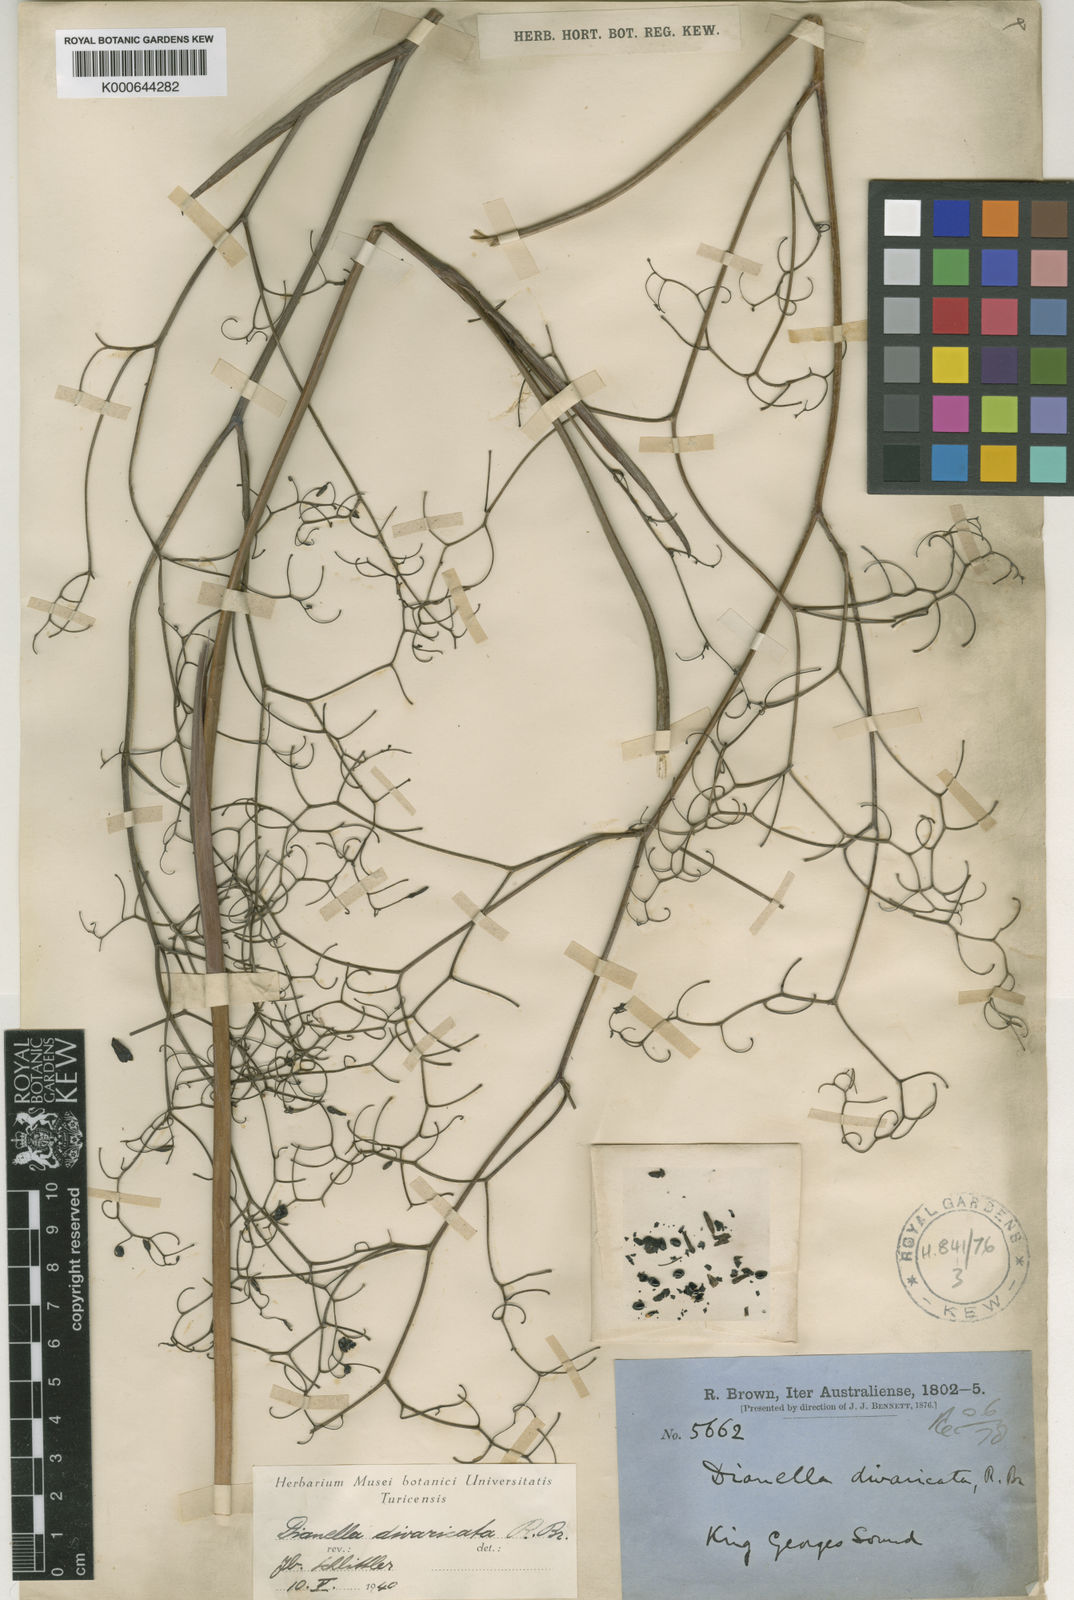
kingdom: Plantae
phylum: Tracheophyta
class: Liliopsida
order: Asparagales
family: Asphodelaceae
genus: Dianella
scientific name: Dianella revoluta
